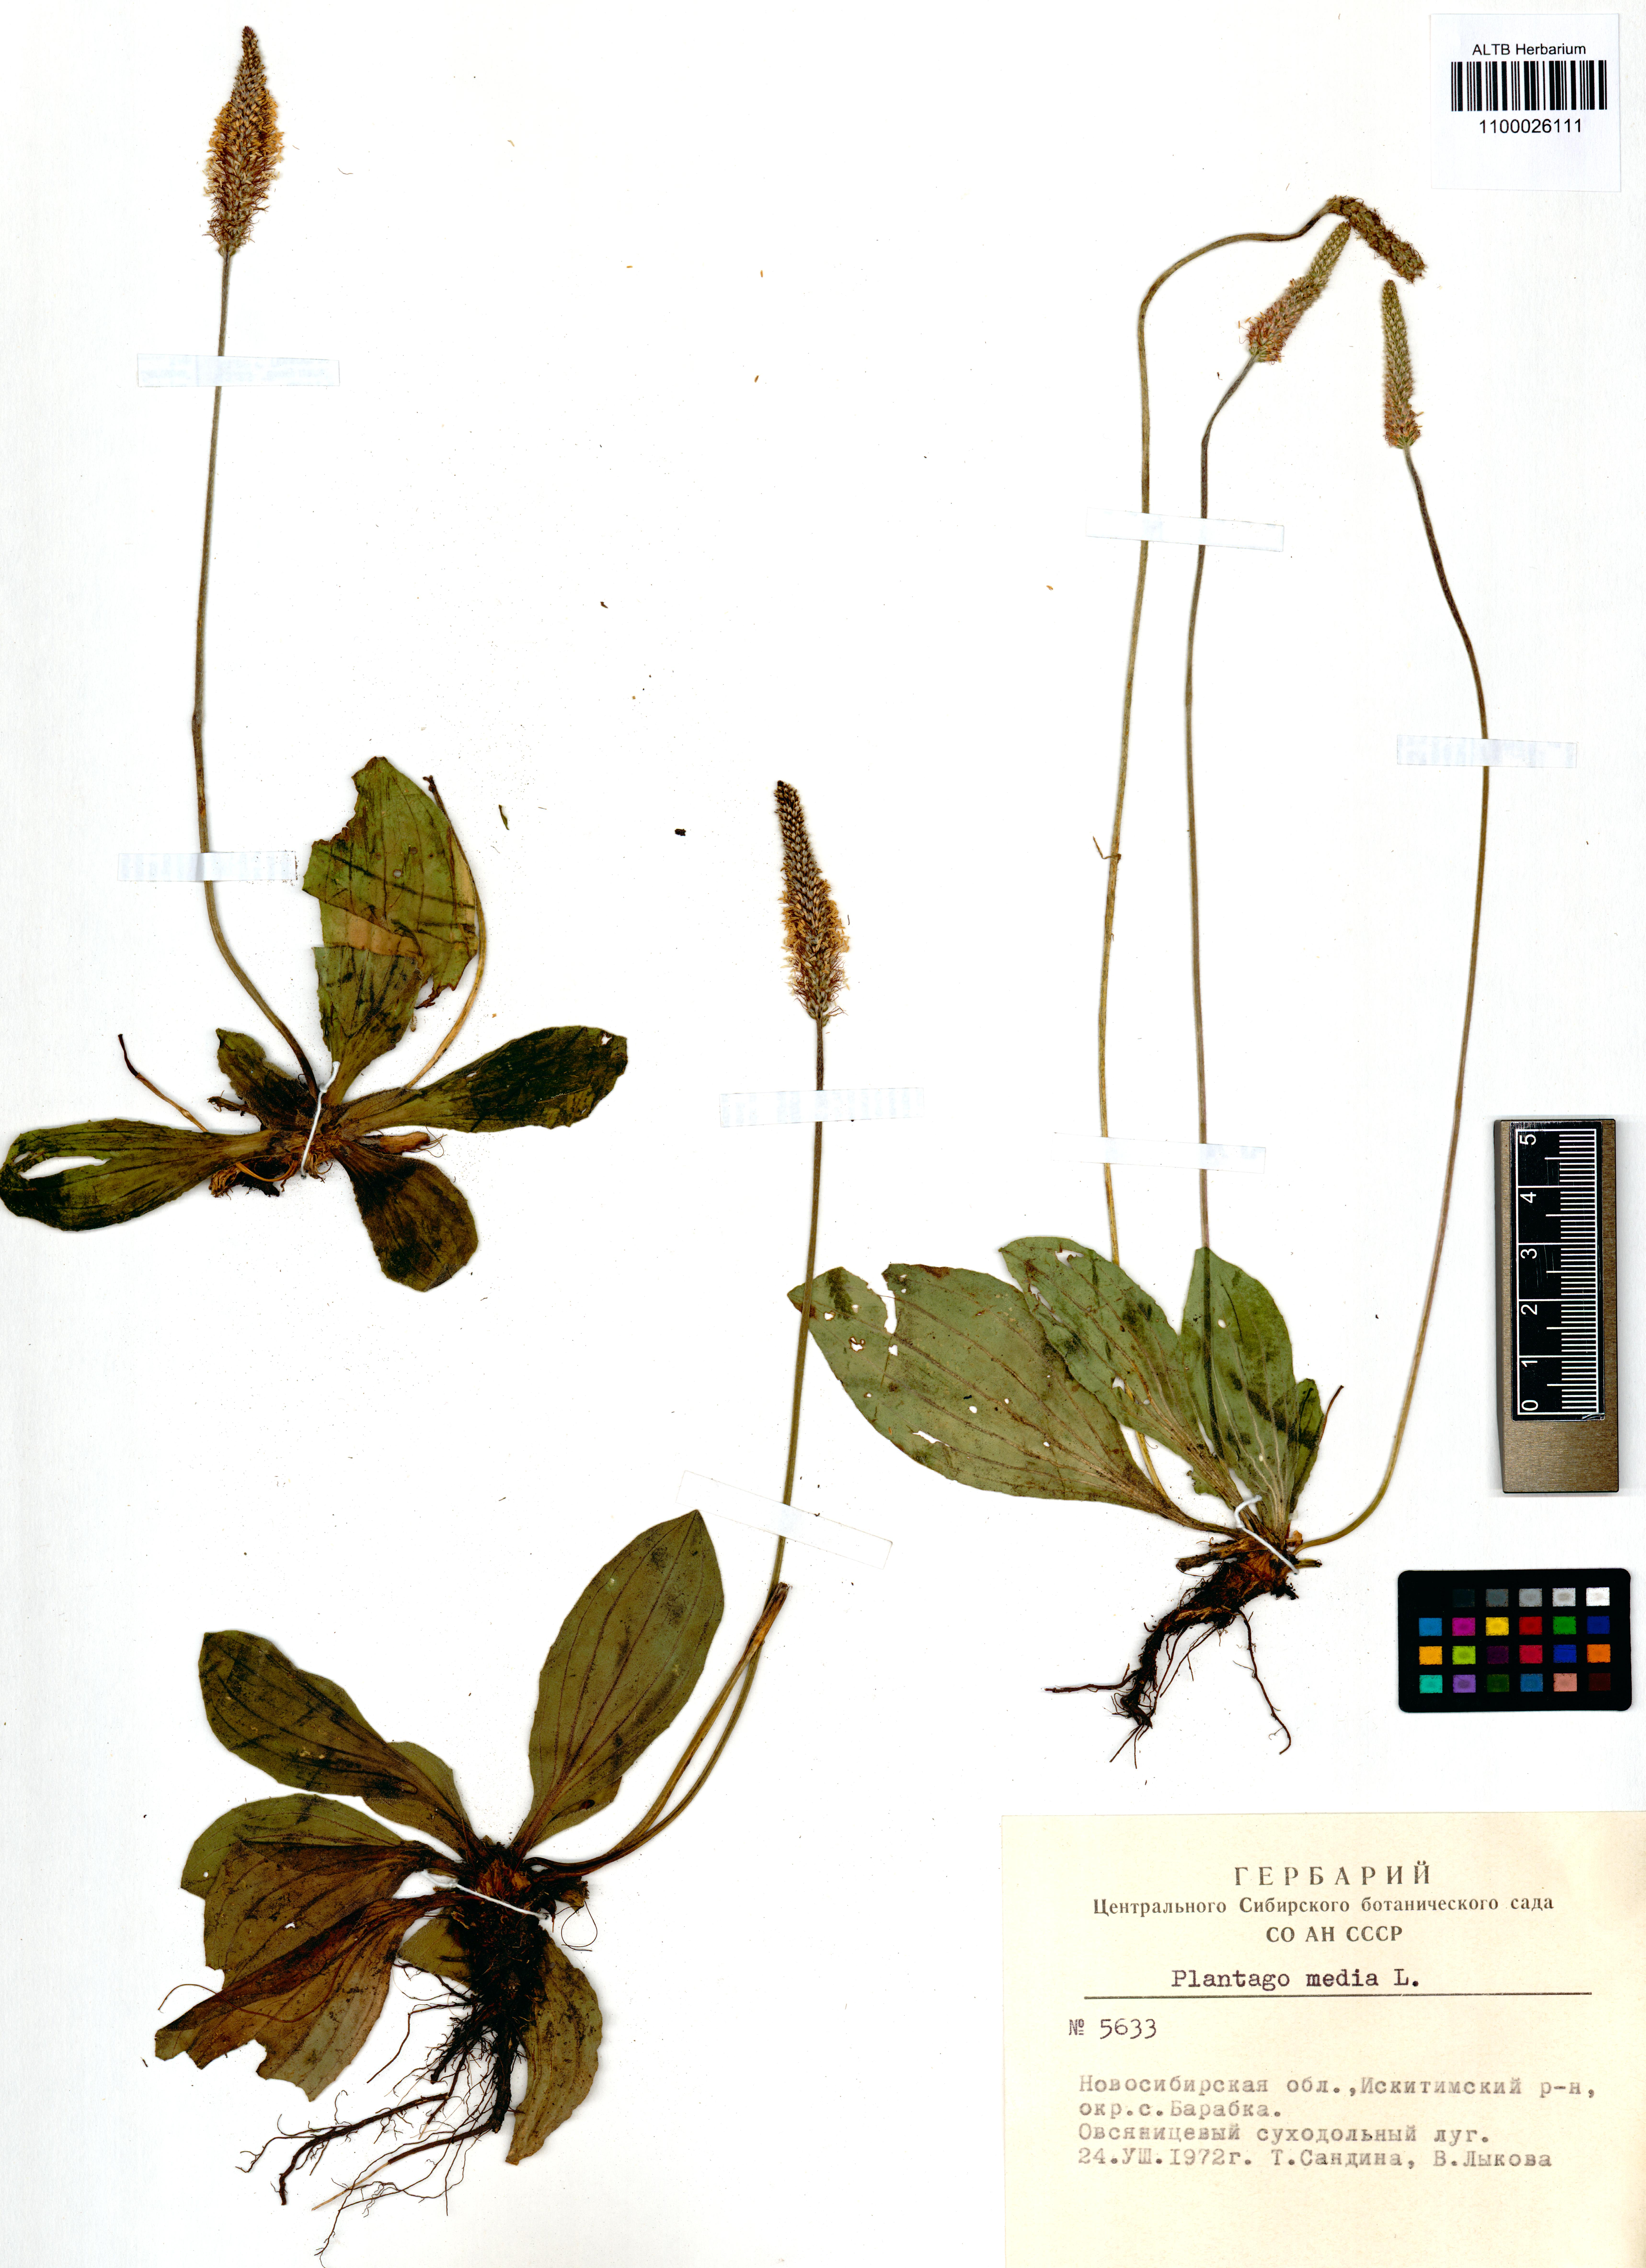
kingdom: Plantae
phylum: Tracheophyta
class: Magnoliopsida
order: Lamiales
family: Plantaginaceae
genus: Plantago
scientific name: Plantago media
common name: Hoary plantain
